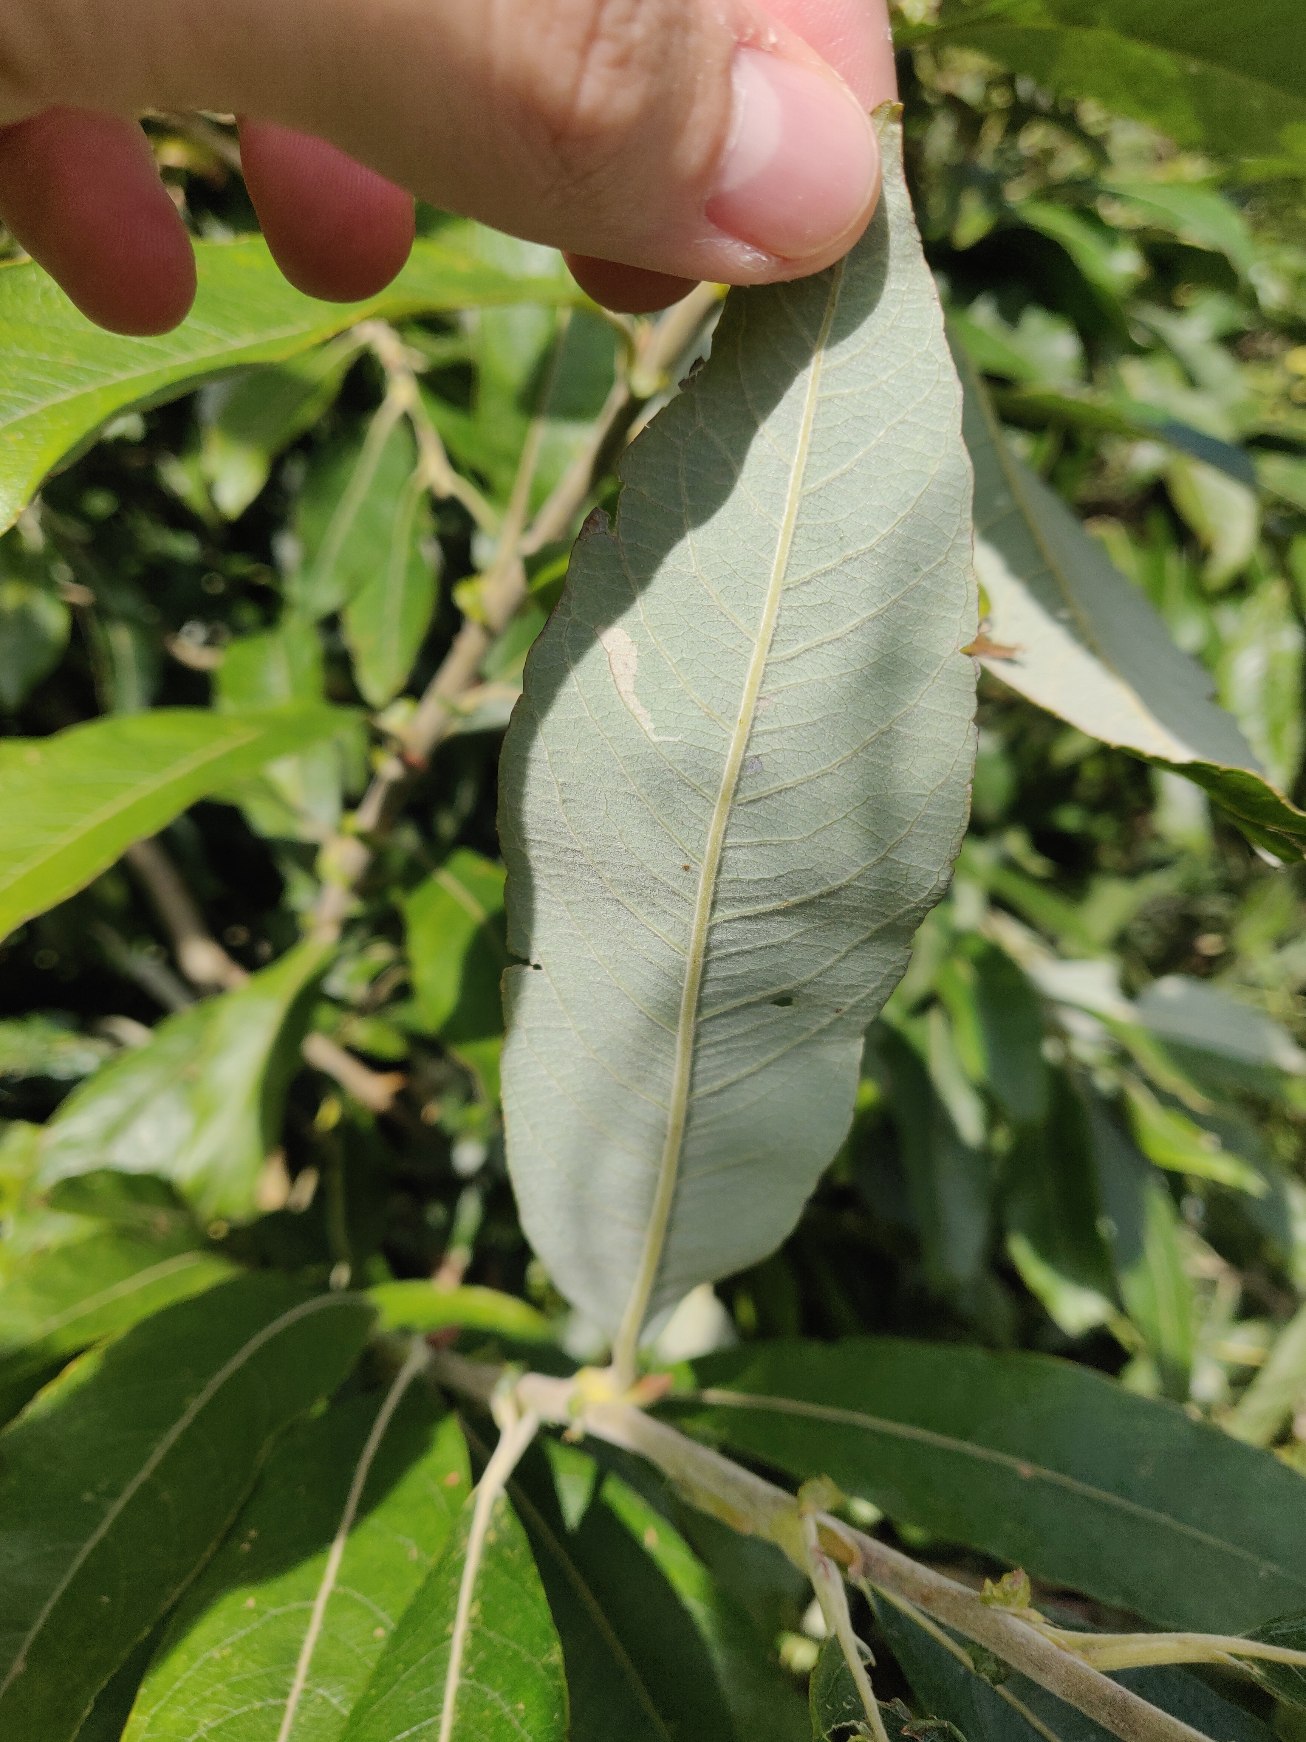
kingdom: Plantae
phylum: Tracheophyta
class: Magnoliopsida
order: Malpighiales
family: Salicaceae
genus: Salix
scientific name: Salix calodendron
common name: Smuk pil
